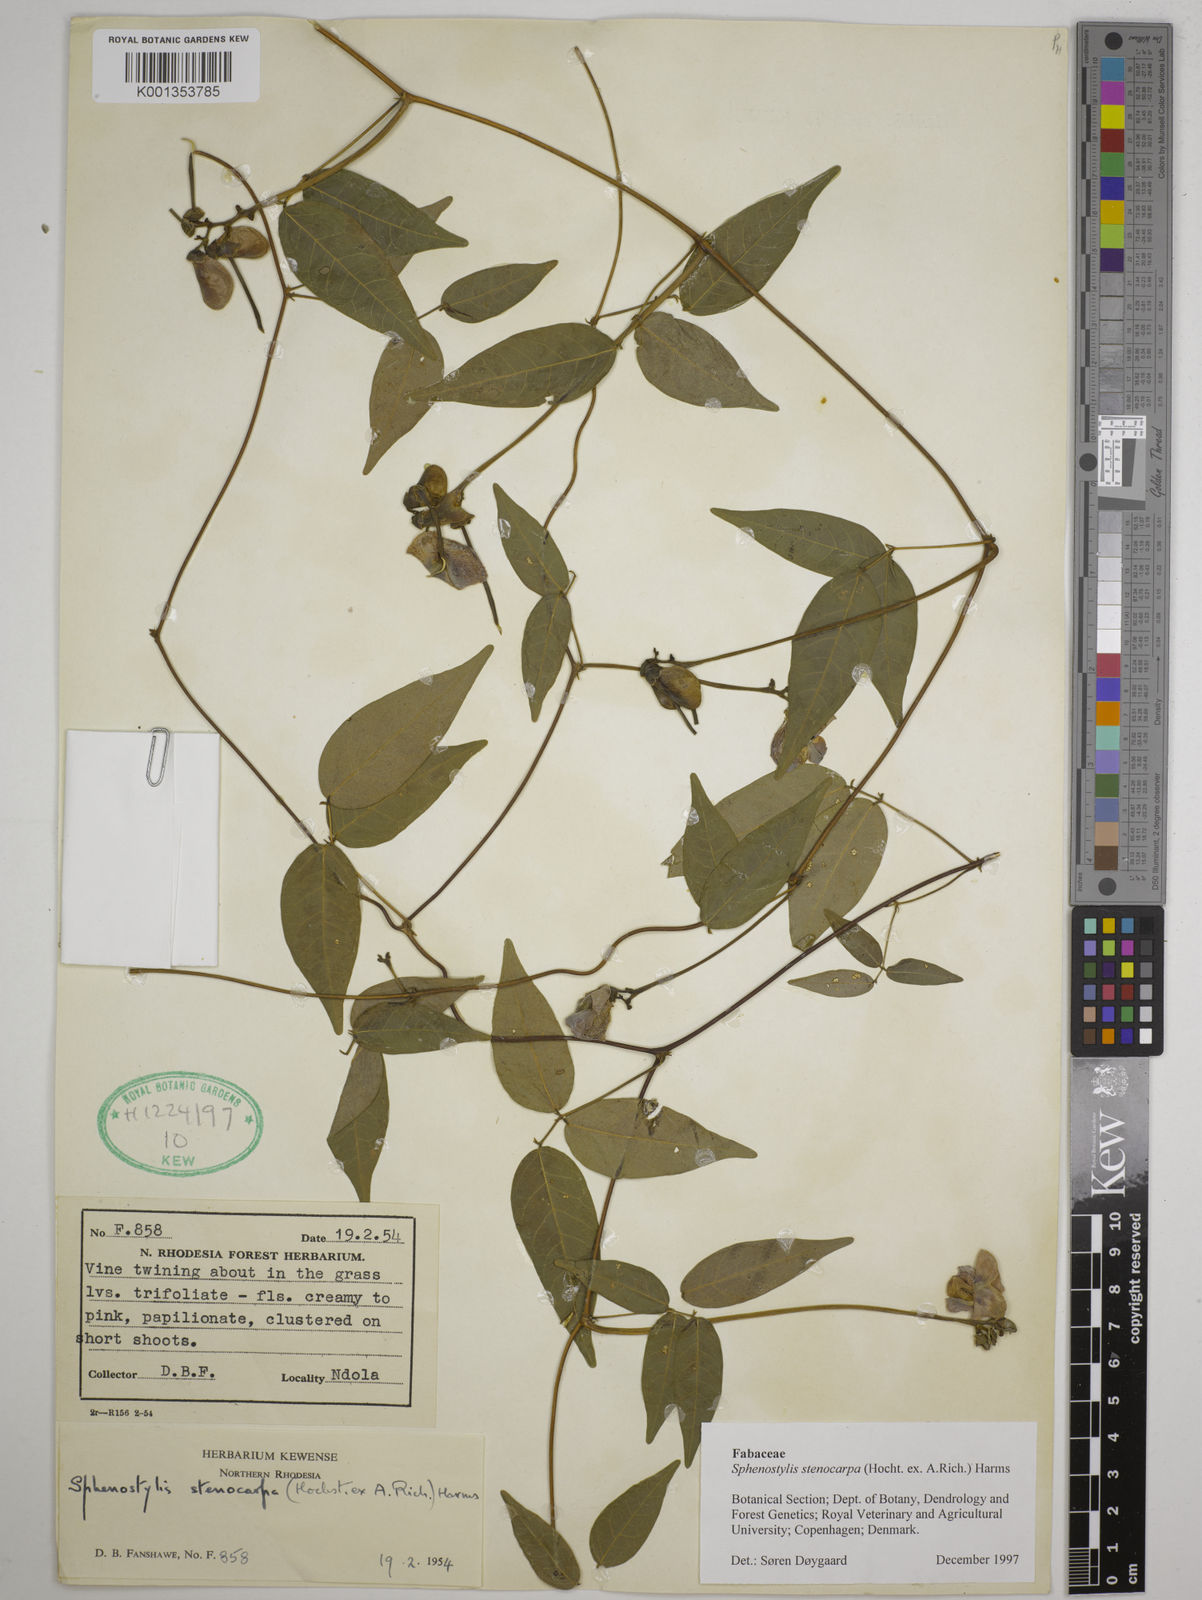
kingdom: Plantae
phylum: Tracheophyta
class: Magnoliopsida
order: Fabales
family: Fabaceae
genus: Sphenostylis
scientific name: Sphenostylis stenocarpa
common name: Yam-pea
